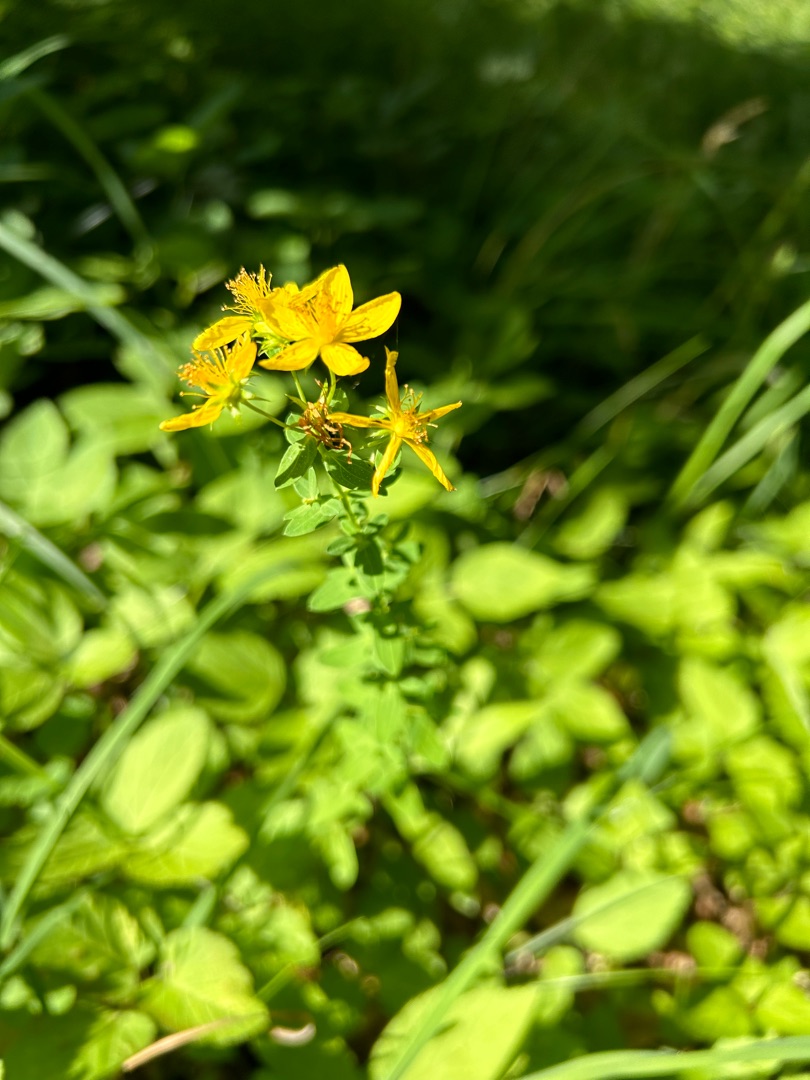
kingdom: Plantae
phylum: Tracheophyta
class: Magnoliopsida
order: Malpighiales
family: Hypericaceae
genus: Hypericum
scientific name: Hypericum perforatum
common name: Prikbladet perikon
